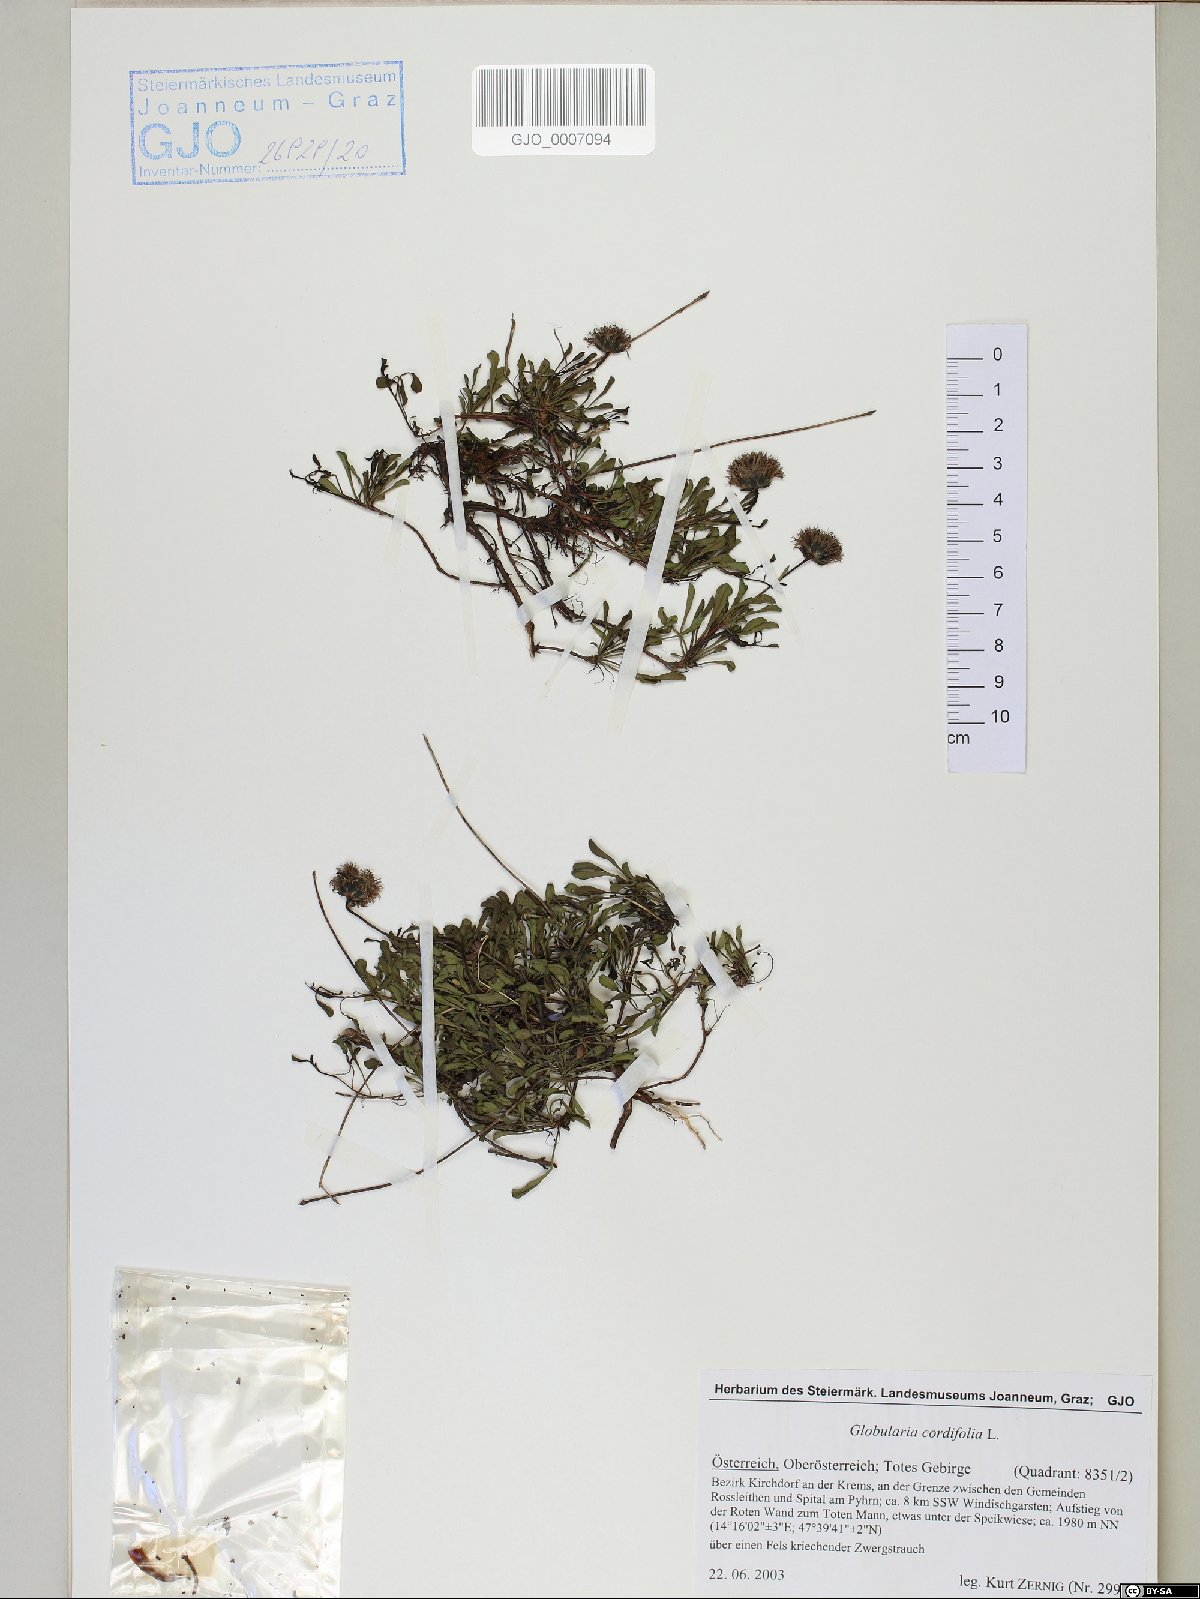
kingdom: Plantae
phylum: Tracheophyta
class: Magnoliopsida
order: Lamiales
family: Plantaginaceae
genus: Globularia
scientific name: Globularia cordifolia
